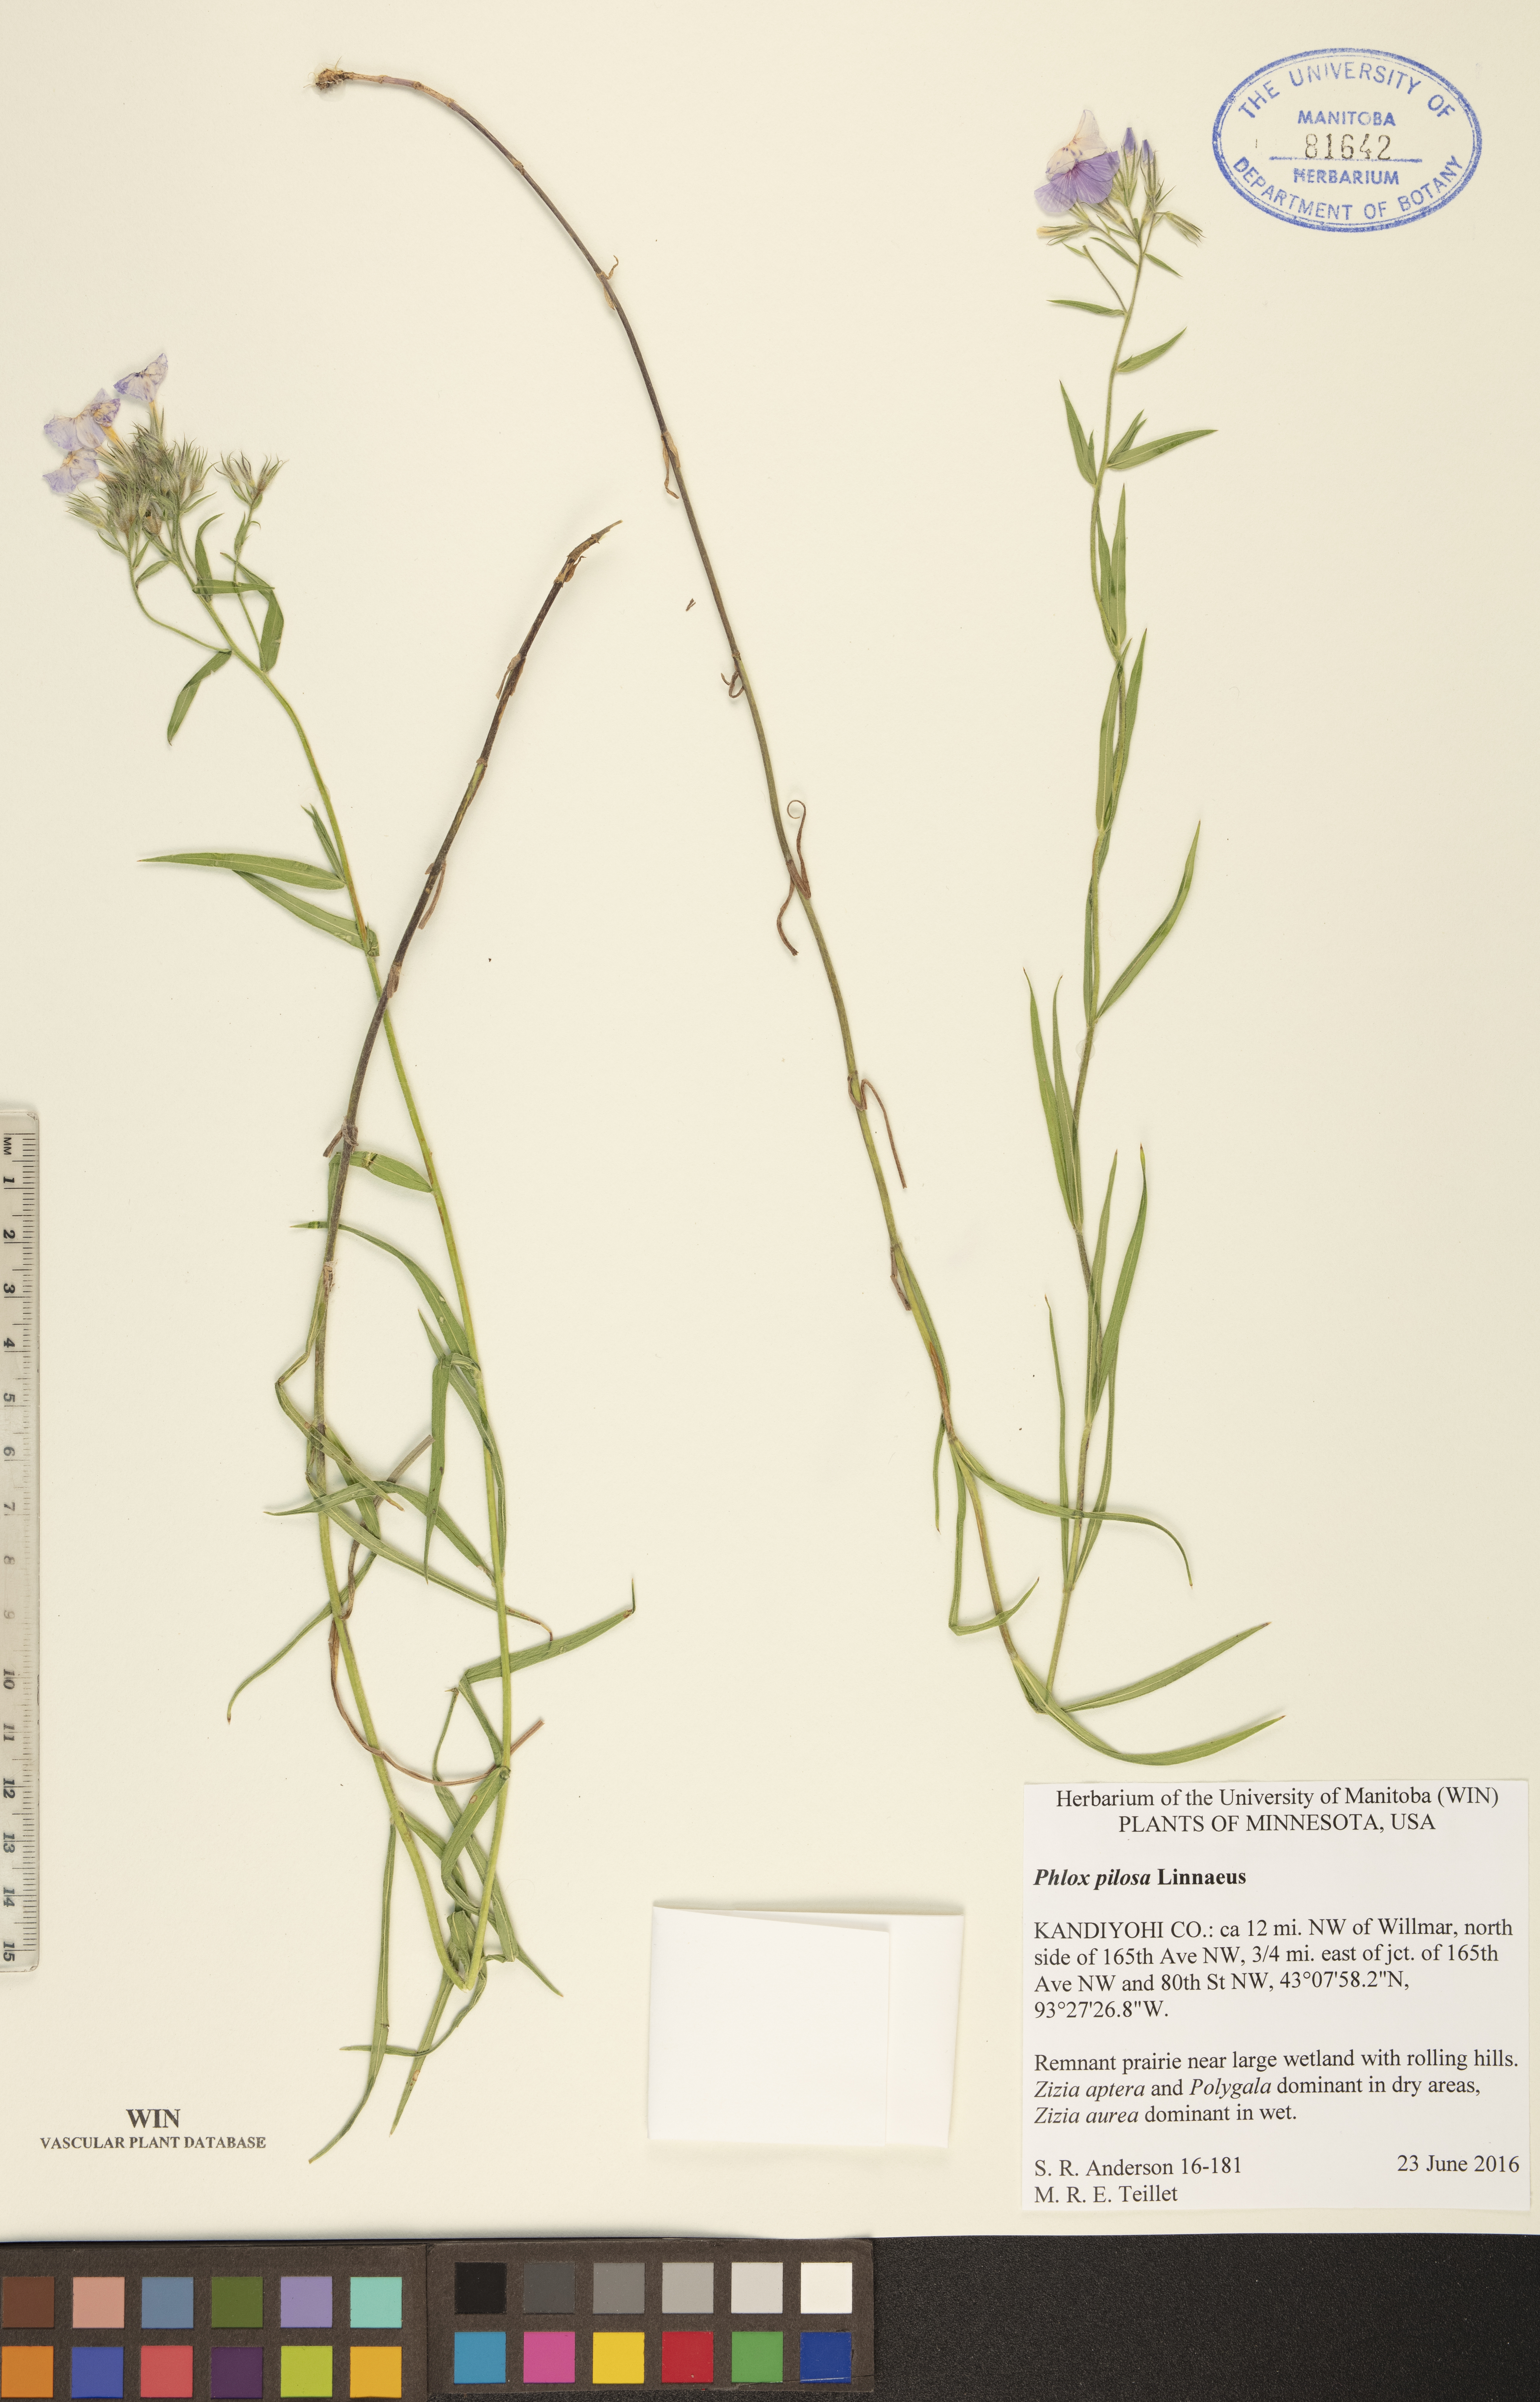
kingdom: Plantae
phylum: Tracheophyta
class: Magnoliopsida
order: Ericales
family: Polemoniaceae
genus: Phlox
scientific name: Phlox pilosa
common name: Prairie phlox
